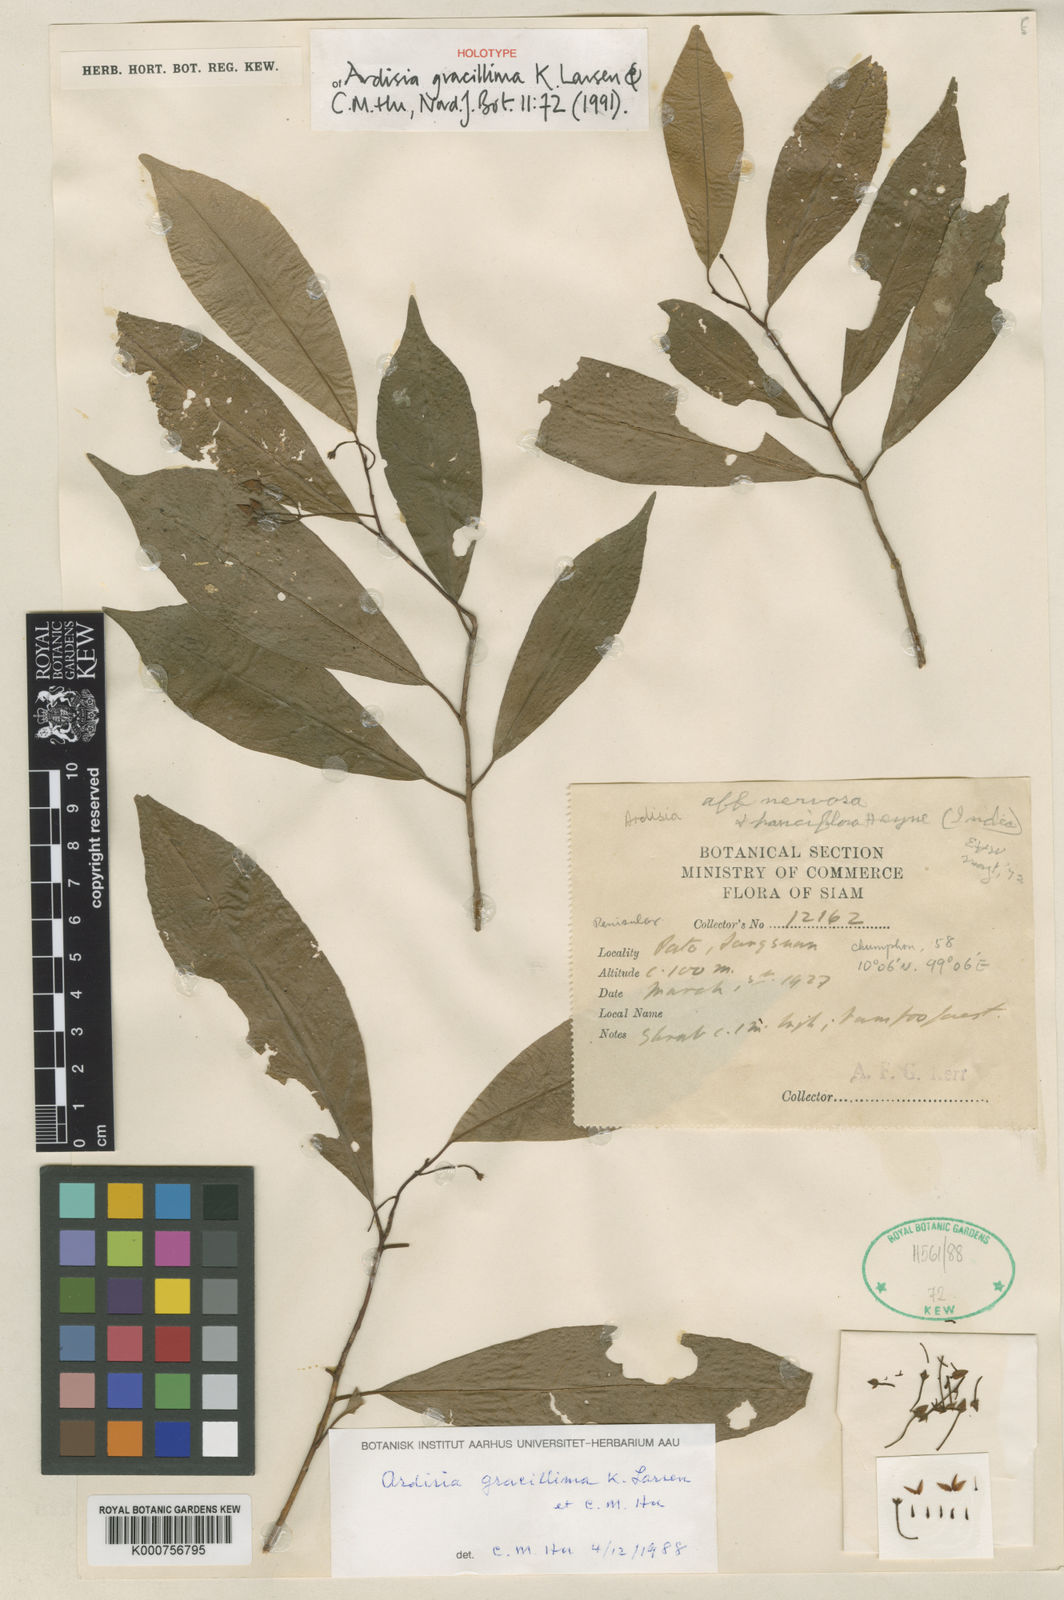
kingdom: Plantae
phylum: Tracheophyta
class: Magnoliopsida
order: Ericales
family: Primulaceae
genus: Ardisia
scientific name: Ardisia gracillima
